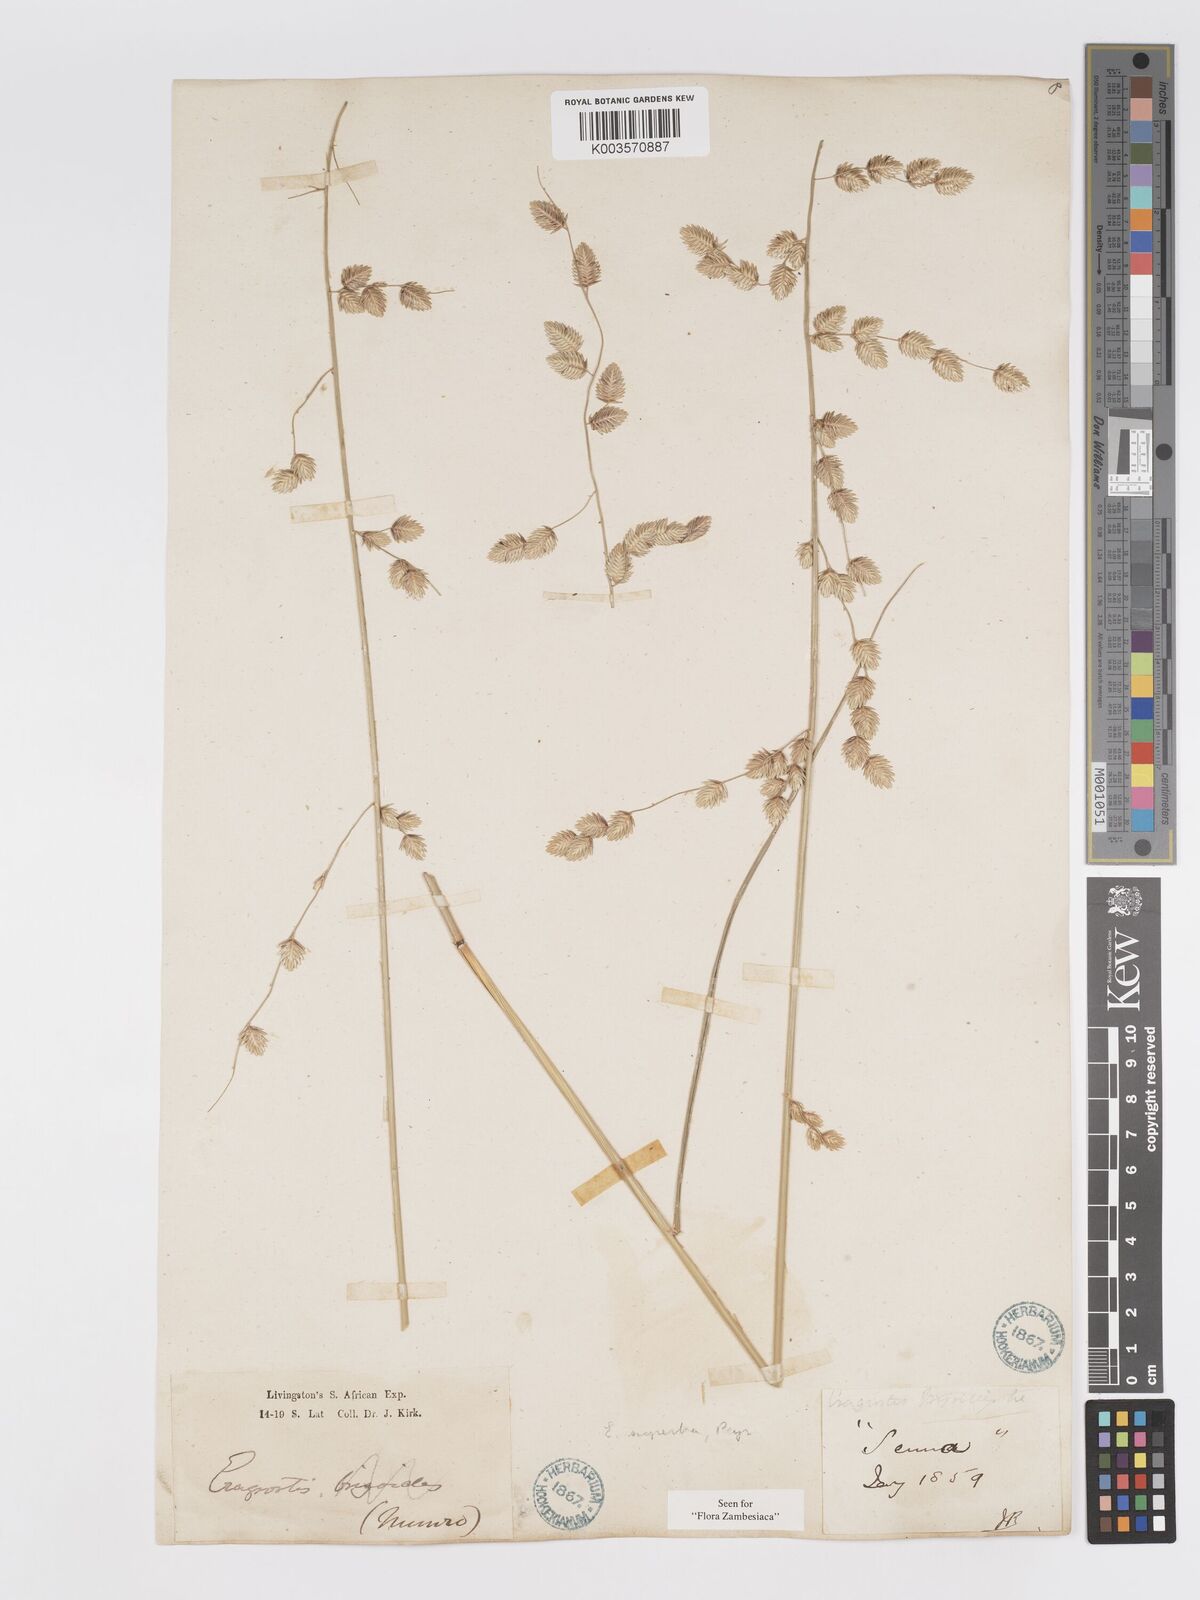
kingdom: Plantae
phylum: Tracheophyta
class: Liliopsida
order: Poales
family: Poaceae
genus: Eragrostis
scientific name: Eragrostis superba
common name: Wilman lovegrass
